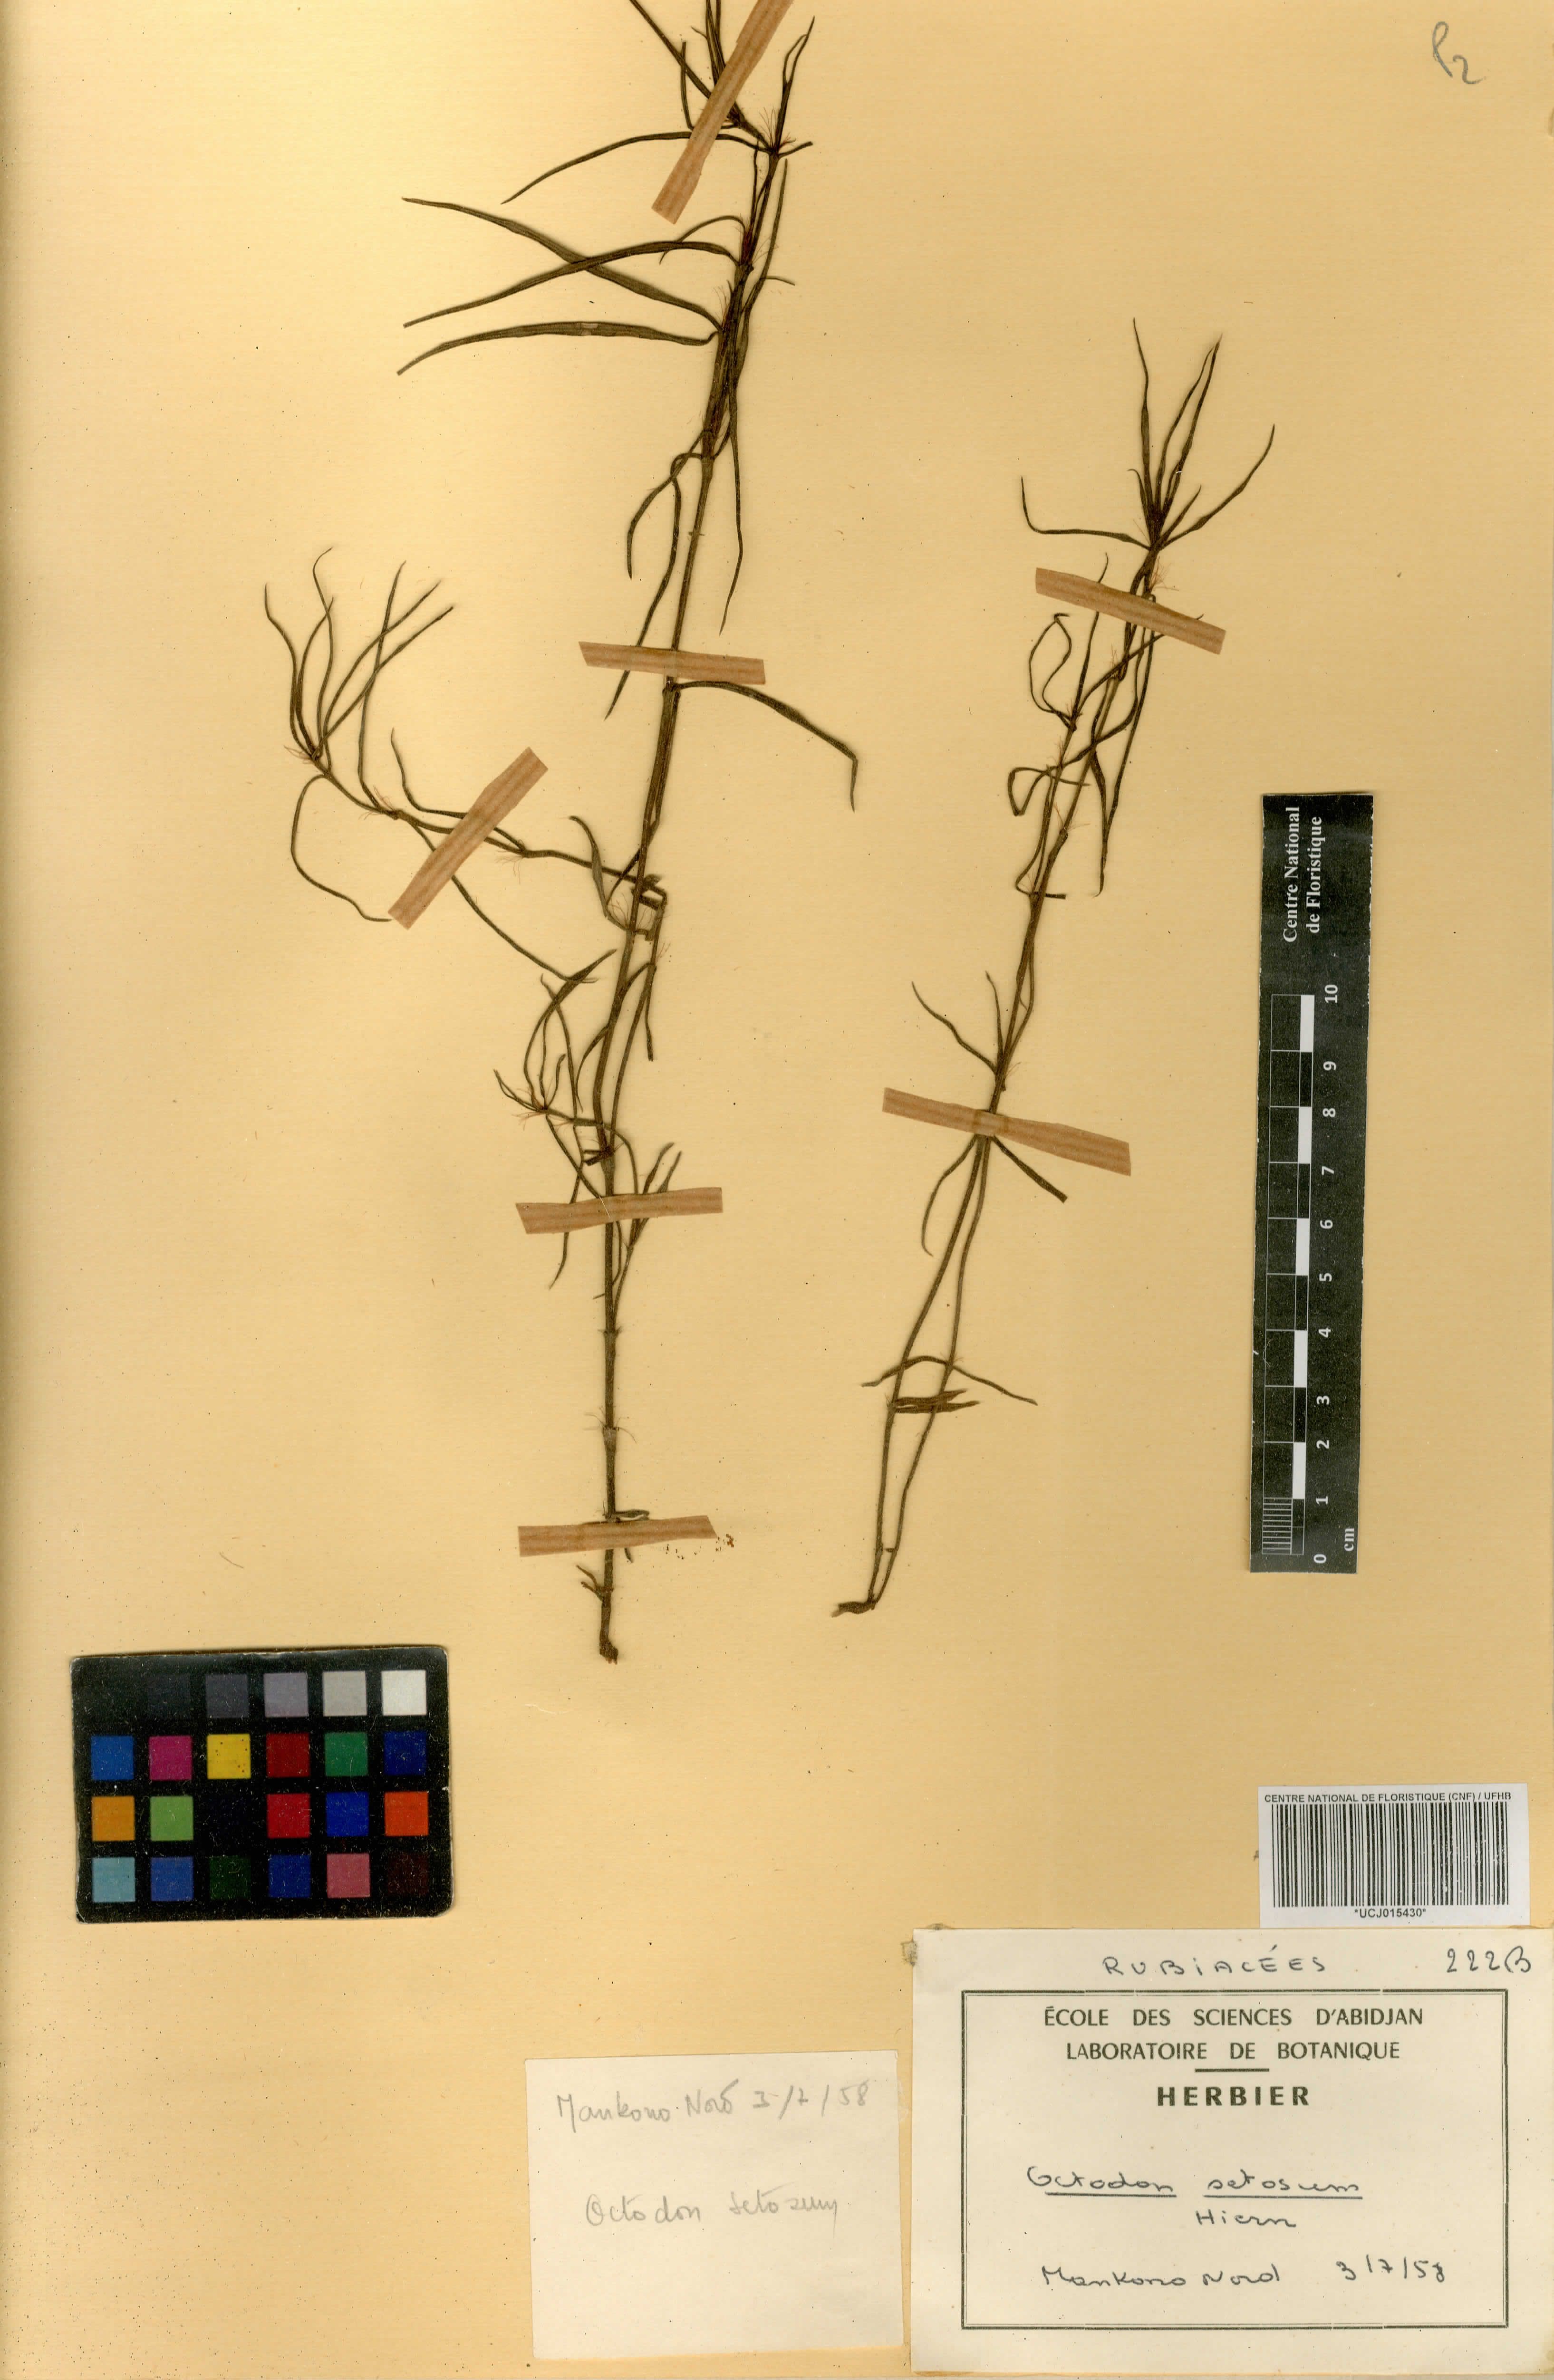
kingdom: Plantae
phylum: Tracheophyta
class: Magnoliopsida
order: Gentianales
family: Rubiaceae
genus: Spermacoce
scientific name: Spermacoce octodon
